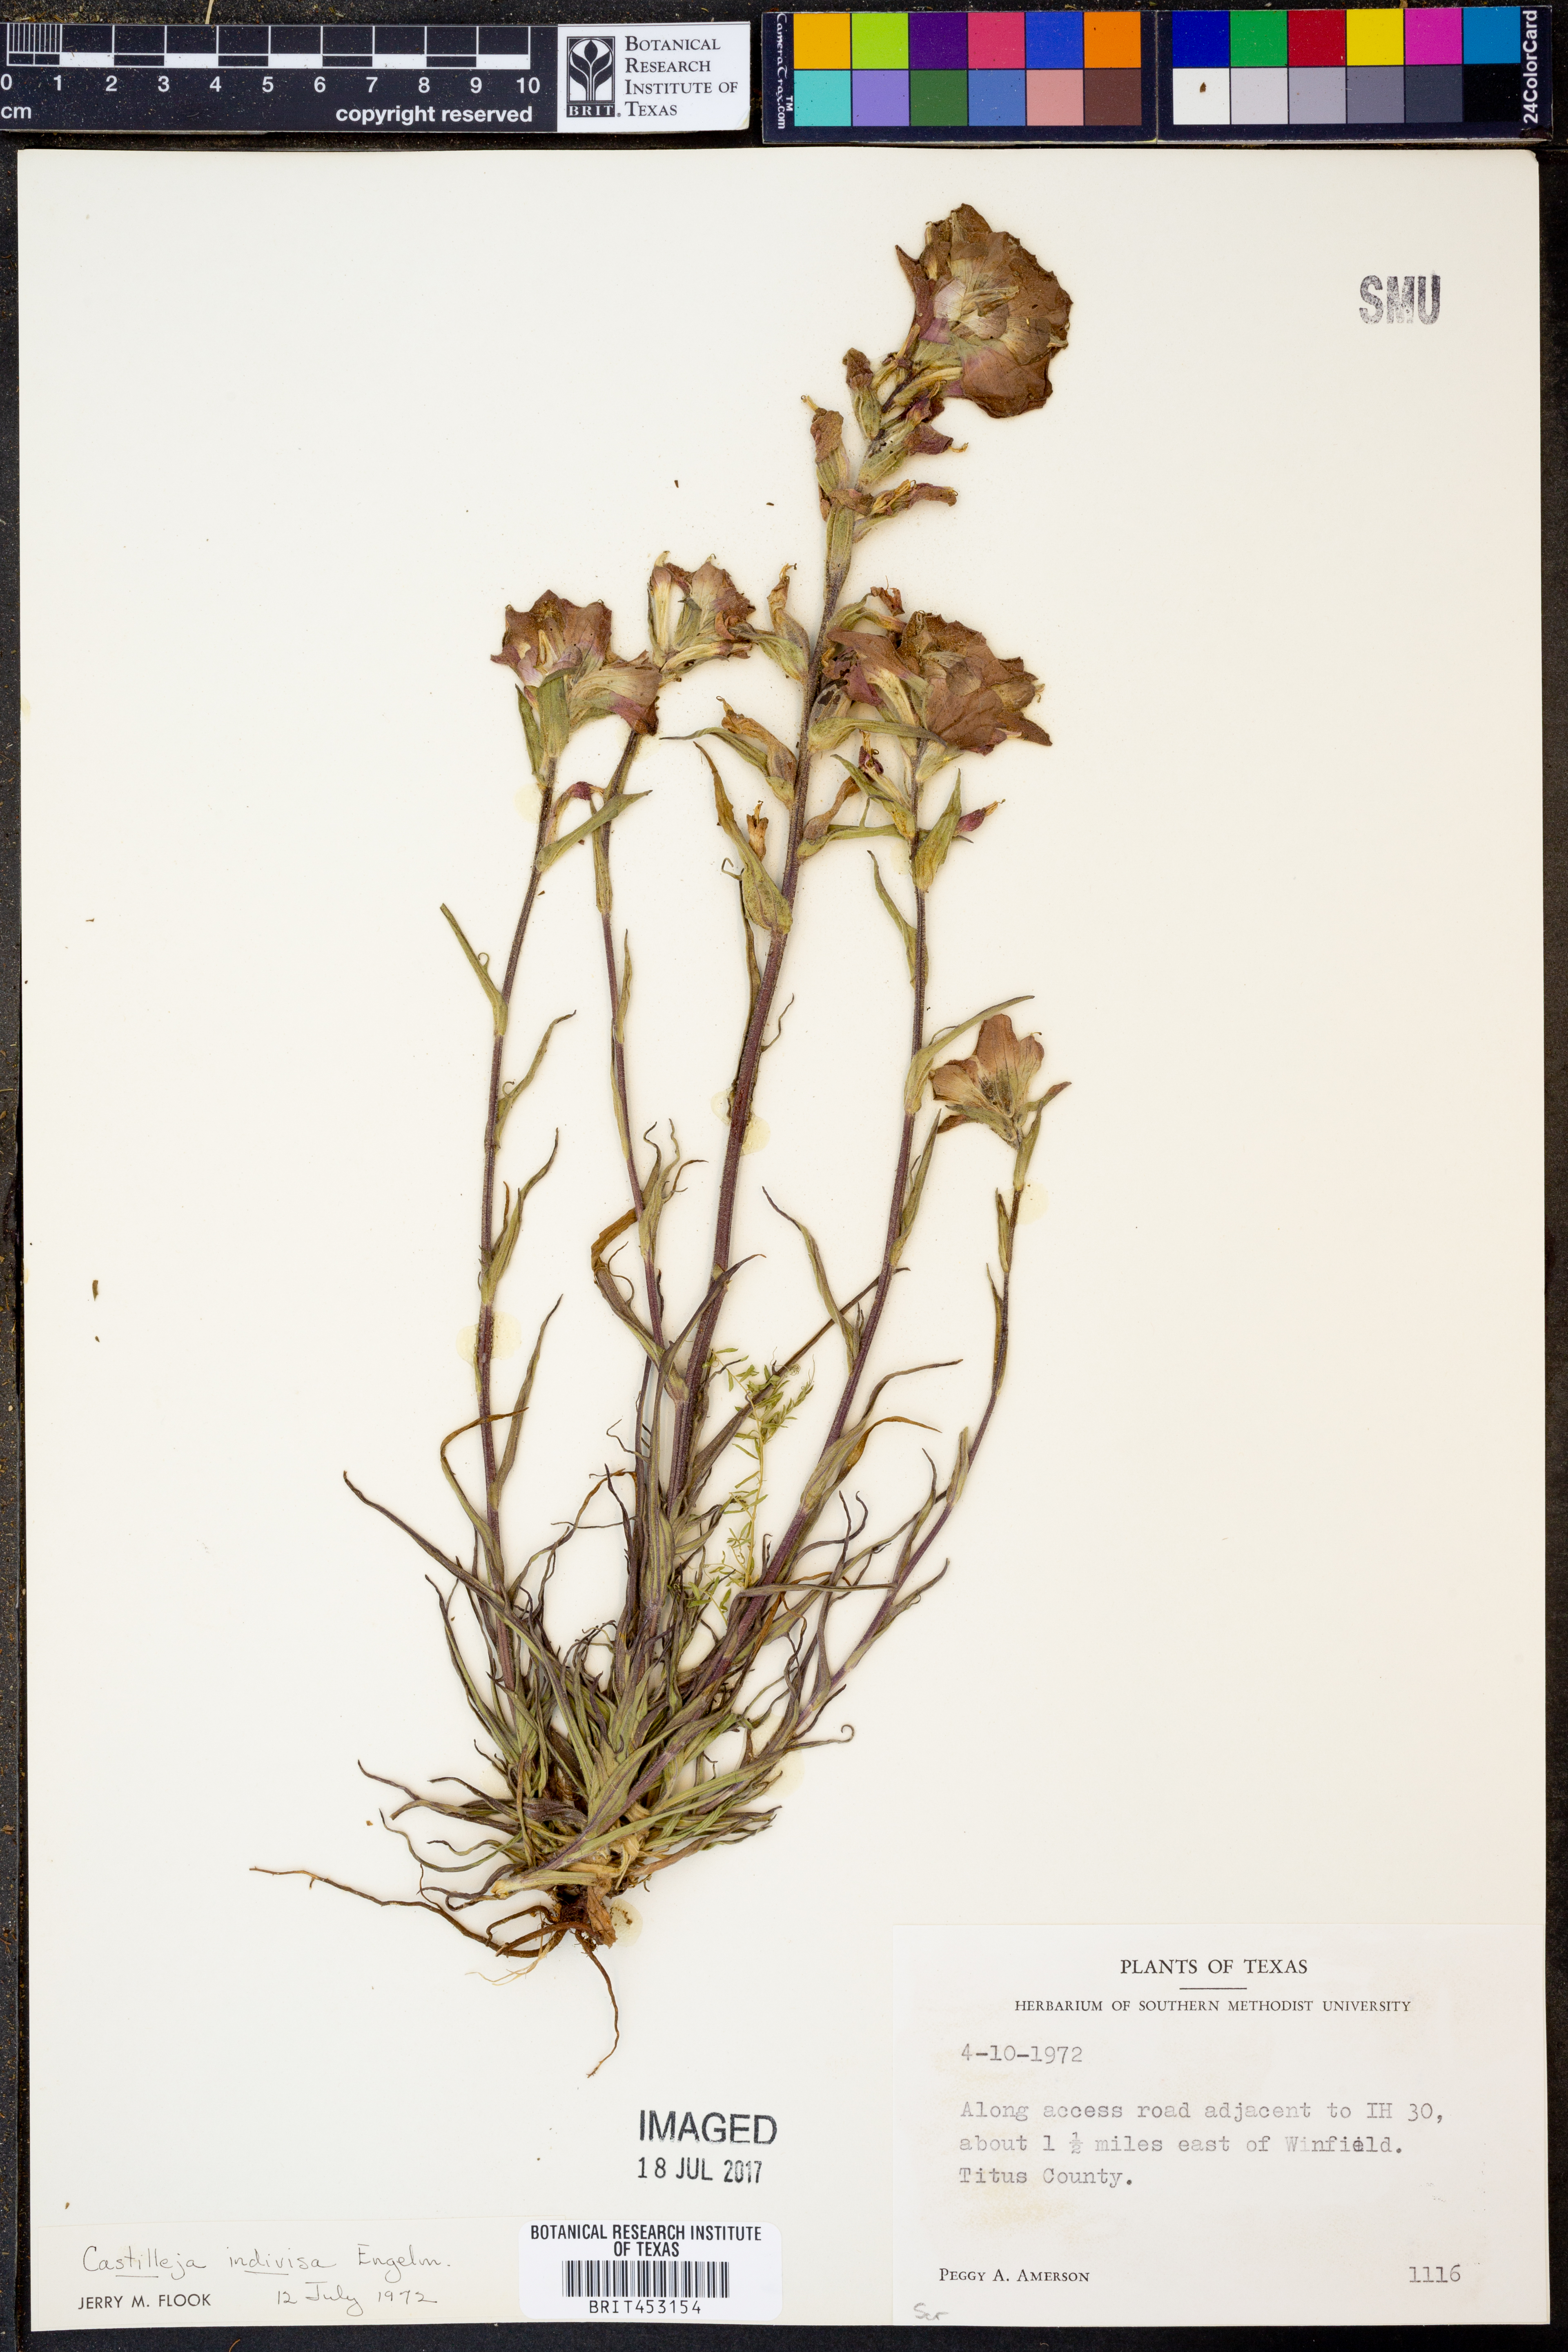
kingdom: Plantae
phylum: Tracheophyta
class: Magnoliopsida
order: Lamiales
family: Orobanchaceae
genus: Castilleja
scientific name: Castilleja indivisa
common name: Texas paintbrush
